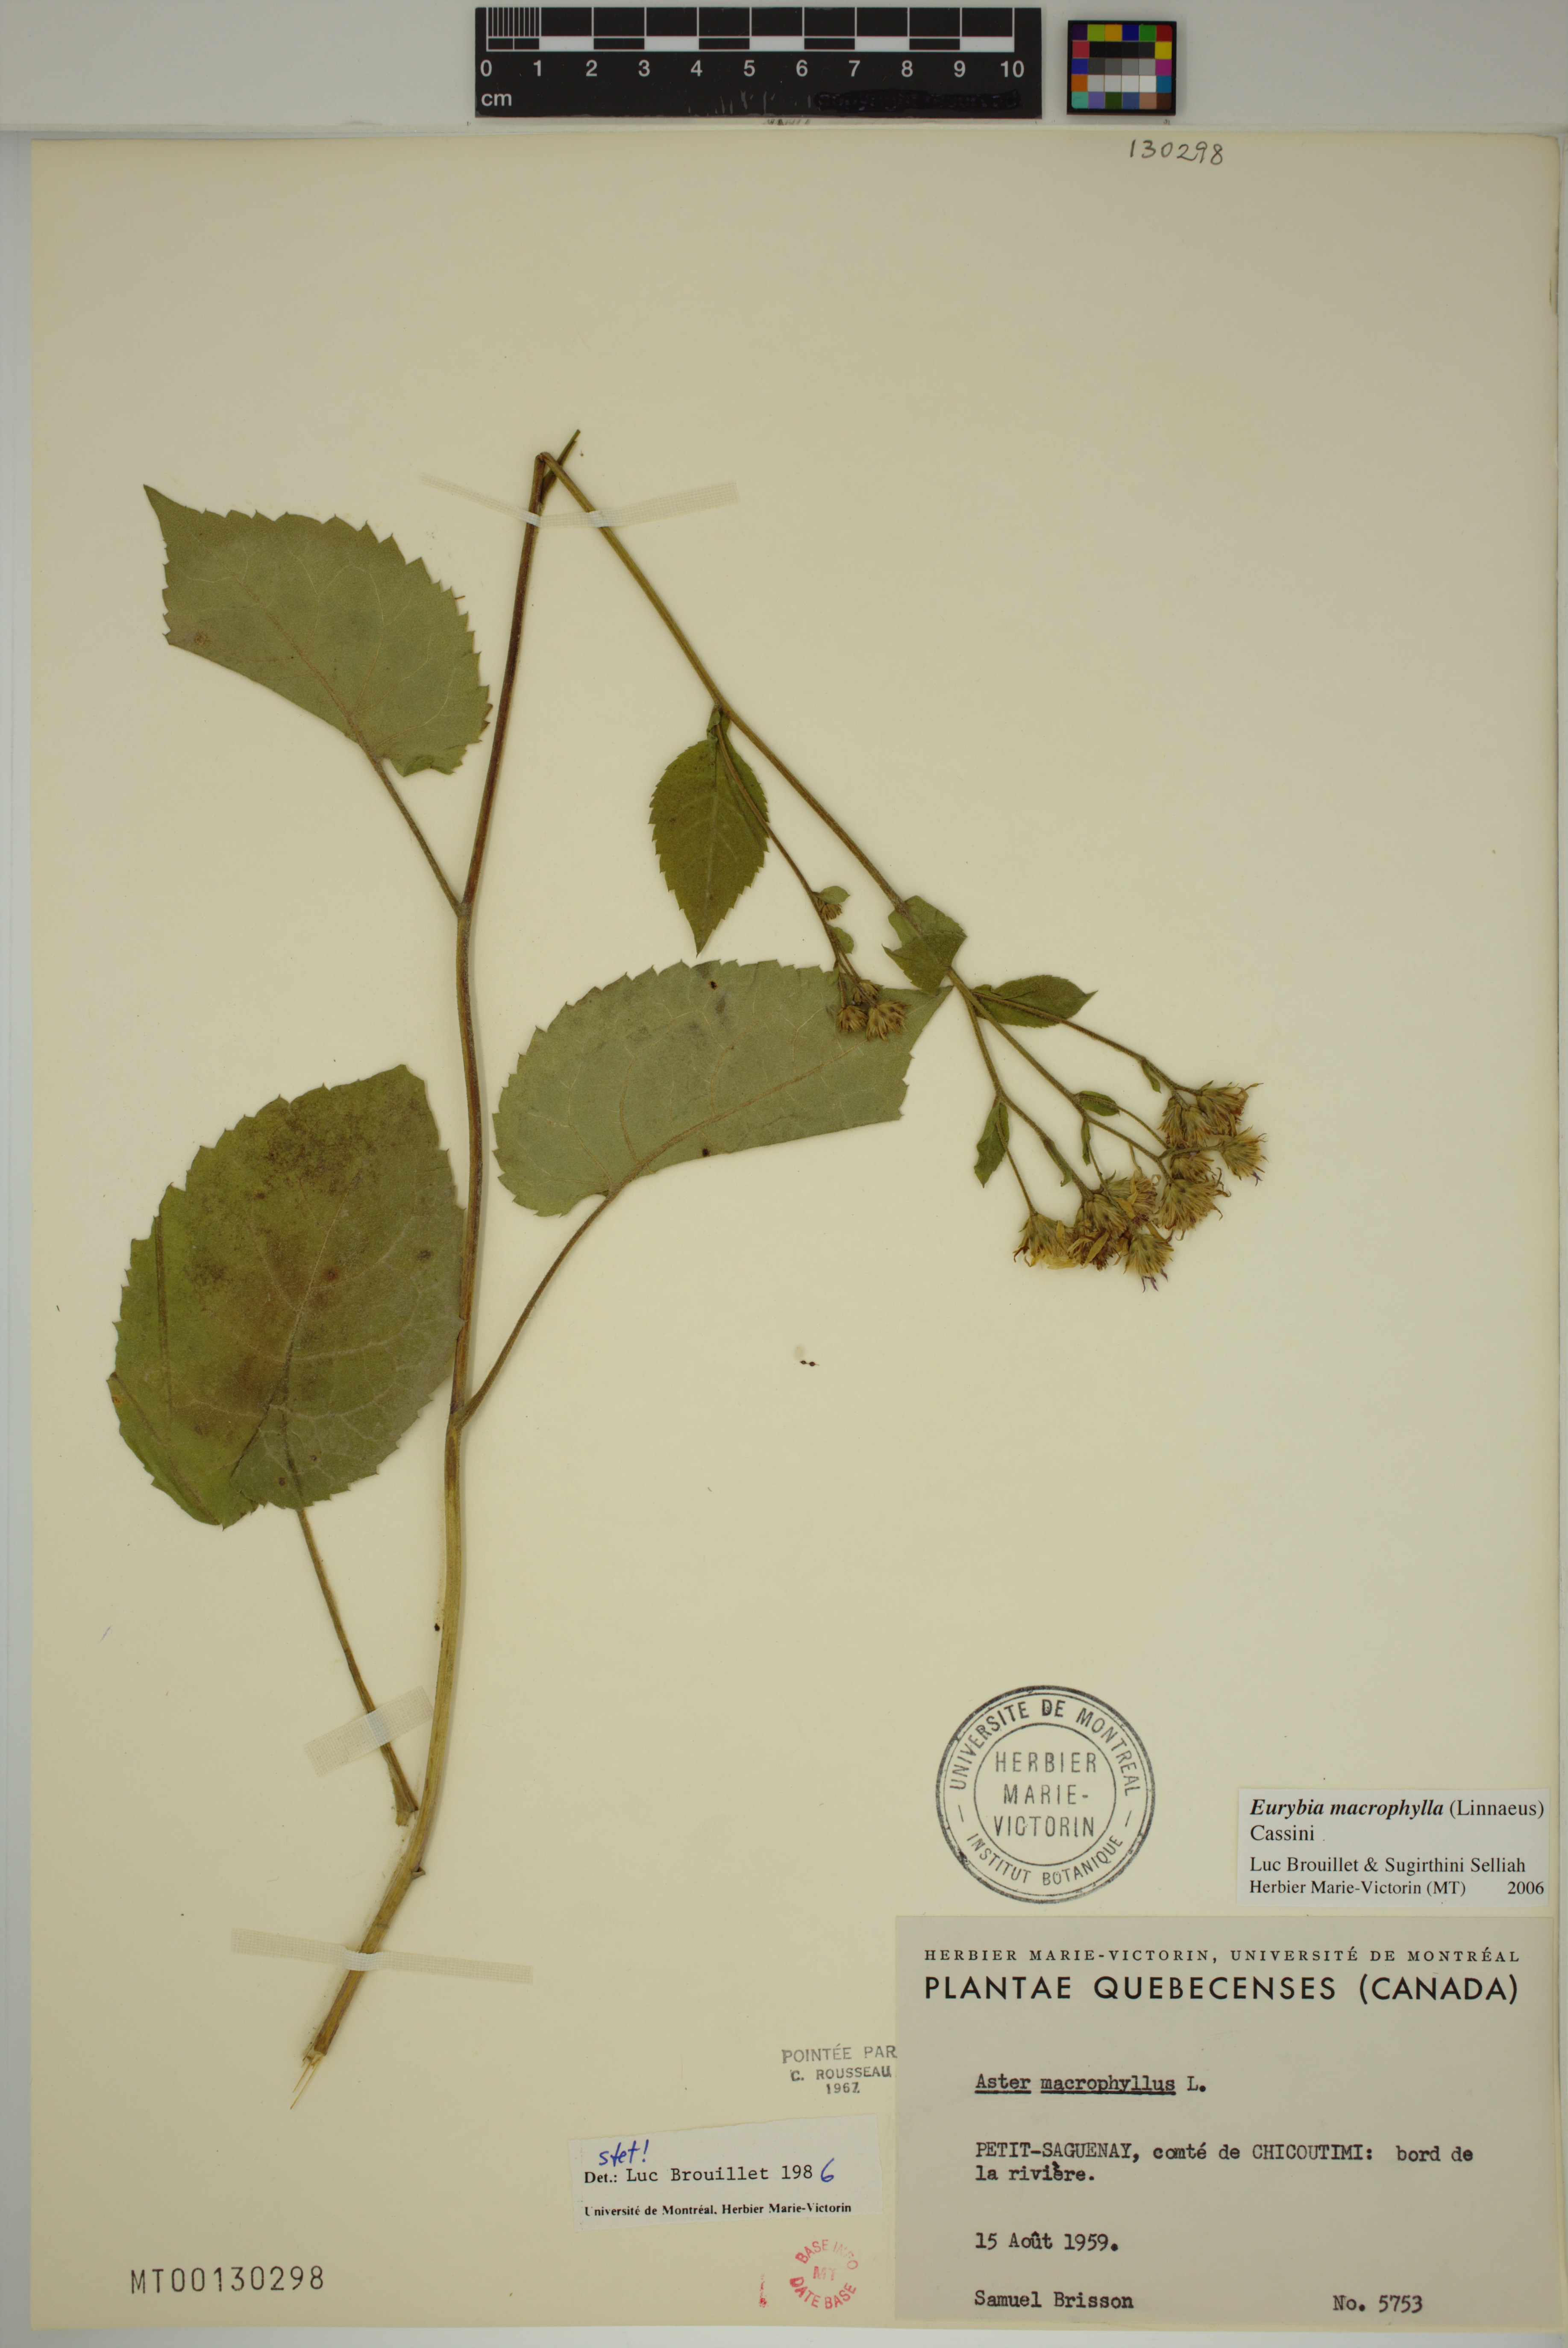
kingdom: Plantae
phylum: Tracheophyta
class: Magnoliopsida
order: Asterales
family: Asteraceae
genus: Eurybia
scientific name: Eurybia macrophylla
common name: Big-leaved aster
